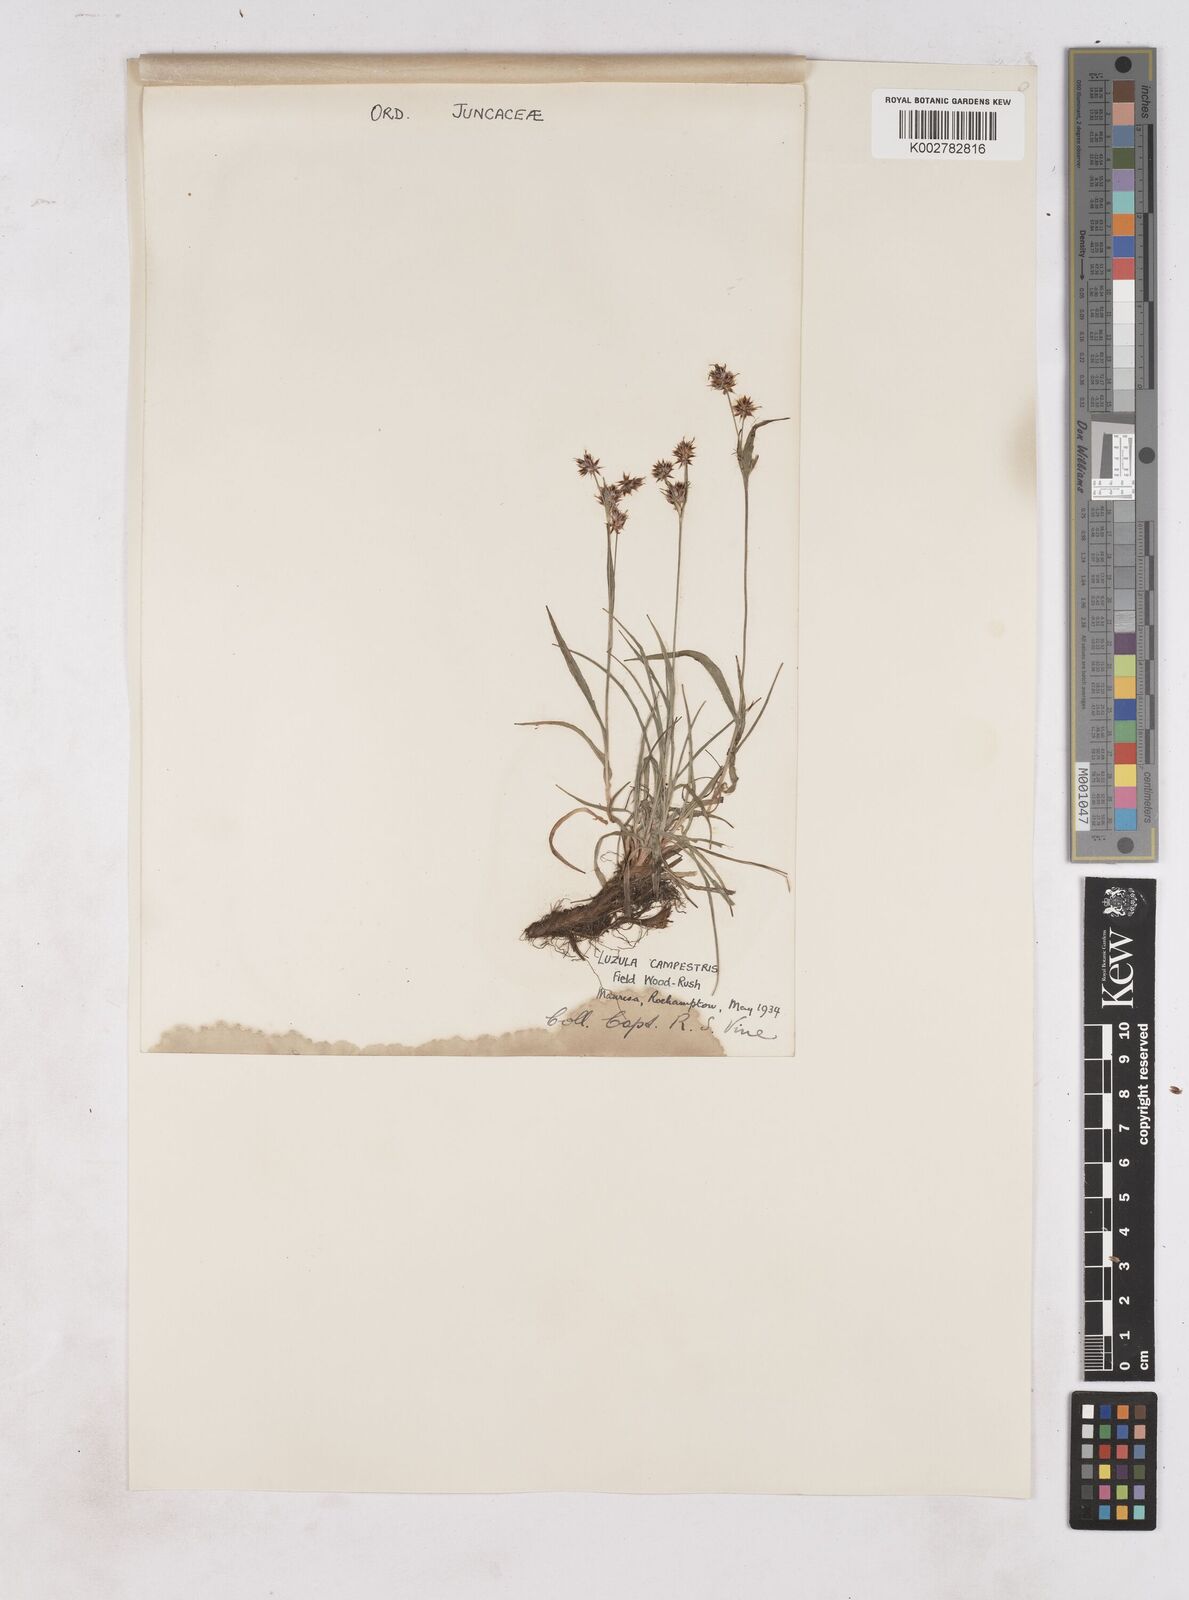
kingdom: Plantae
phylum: Tracheophyta
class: Liliopsida
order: Poales
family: Juncaceae
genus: Luzula
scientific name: Luzula campestris
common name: Field wood-rush
